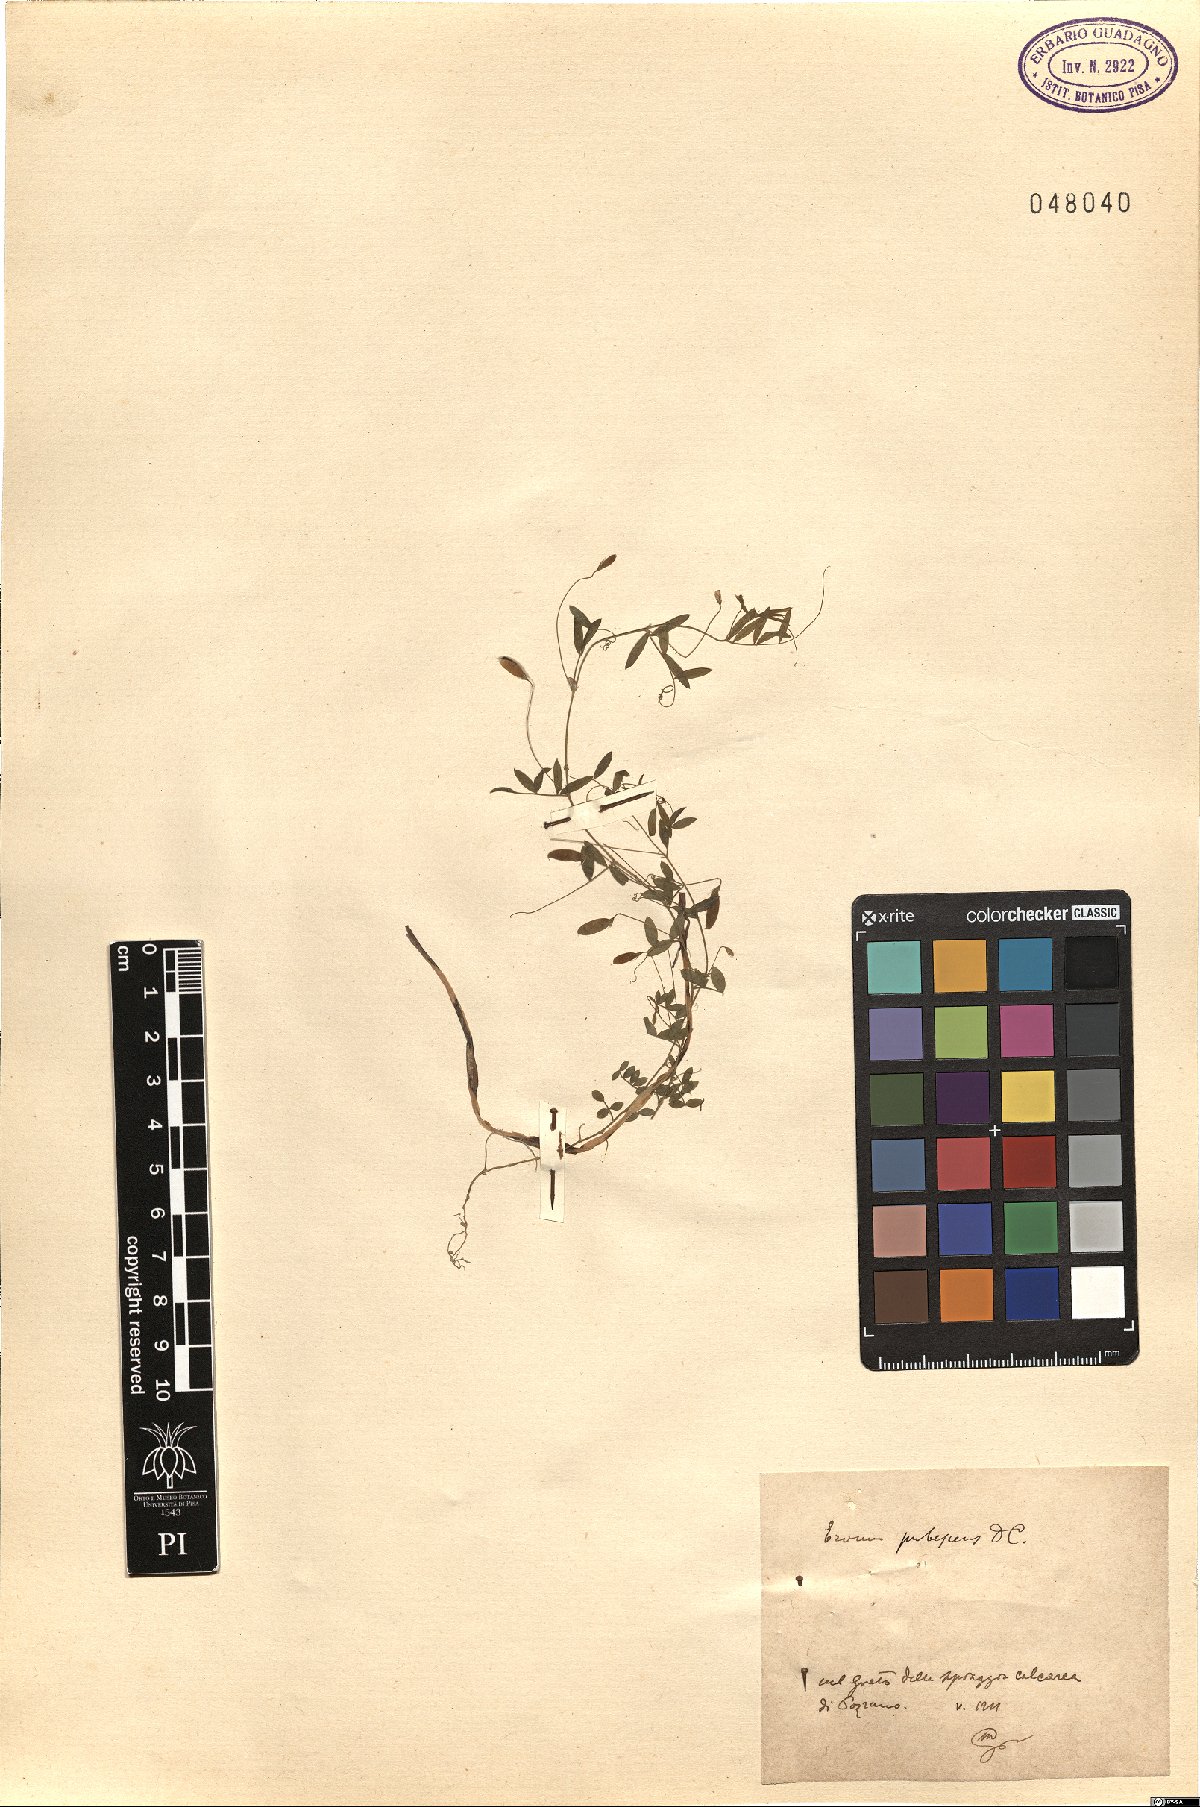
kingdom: Plantae
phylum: Tracheophyta
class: Magnoliopsida
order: Fabales
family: Fabaceae
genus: Vicia
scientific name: Vicia pubescens
